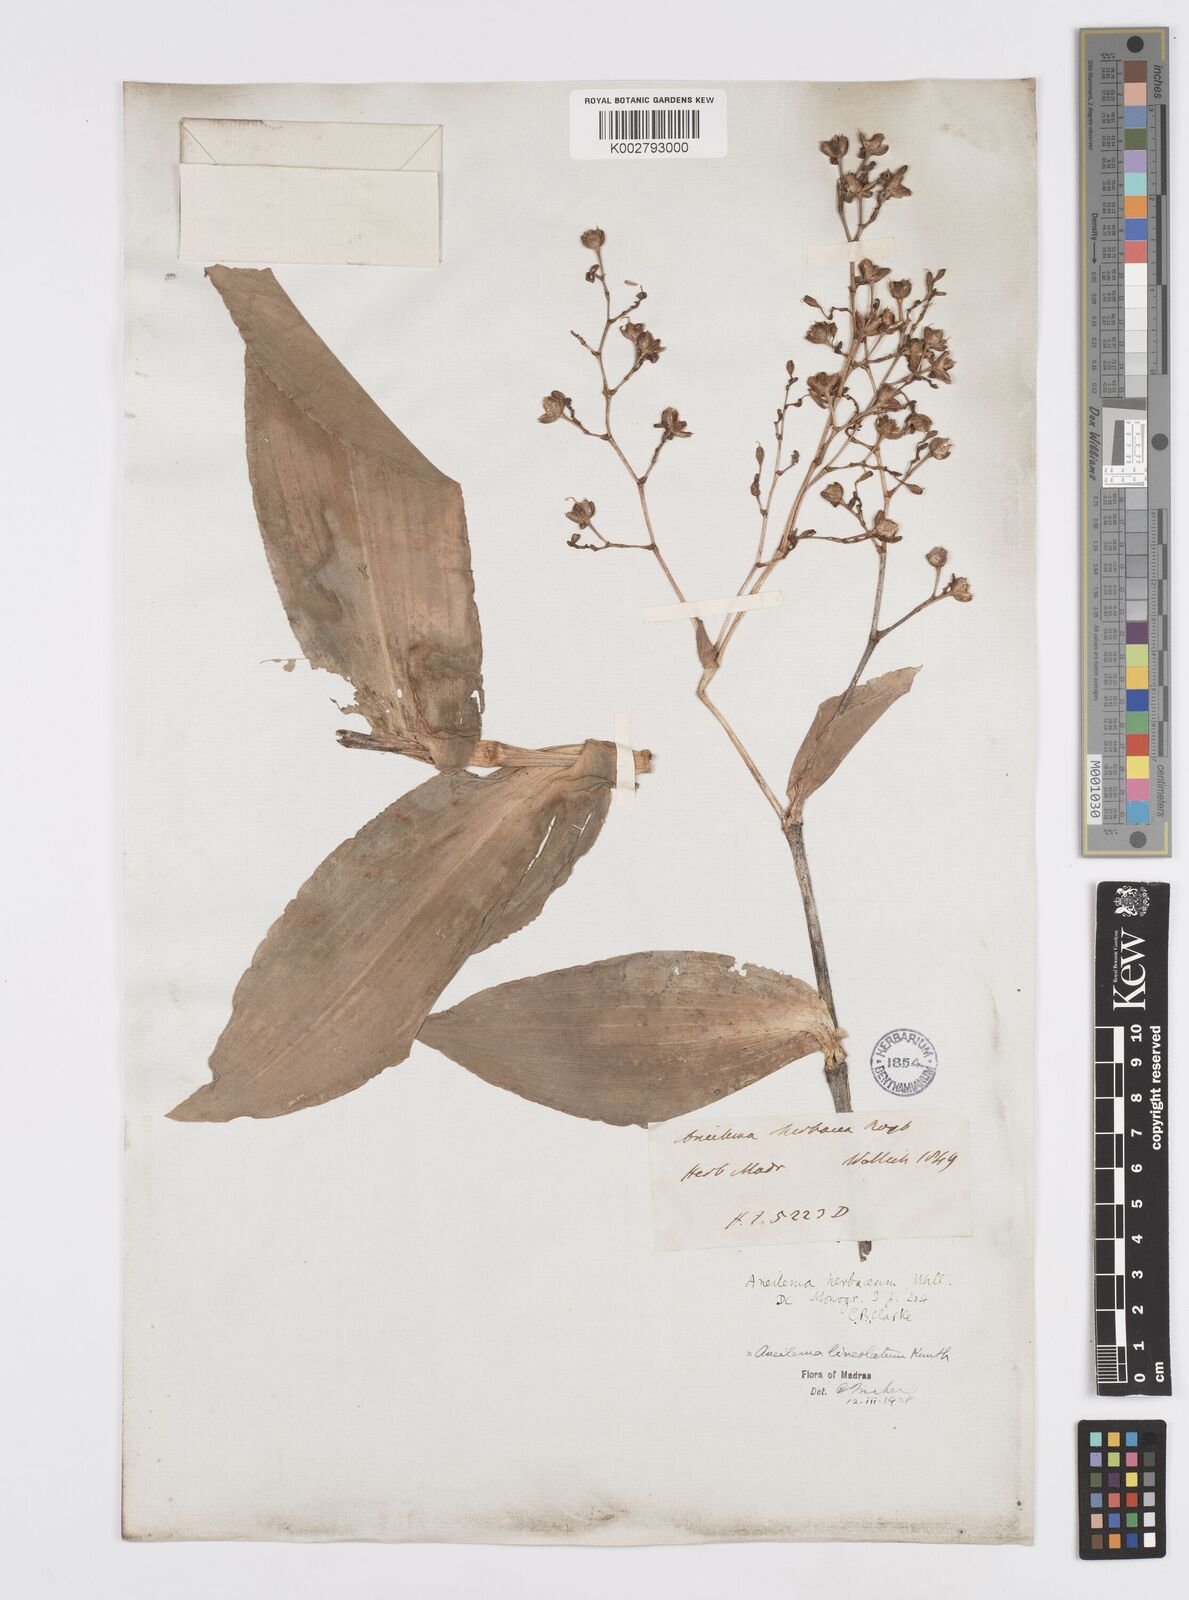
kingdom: Plantae
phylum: Tracheophyta
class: Liliopsida
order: Commelinales
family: Commelinaceae
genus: Murdannia
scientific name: Murdannia
